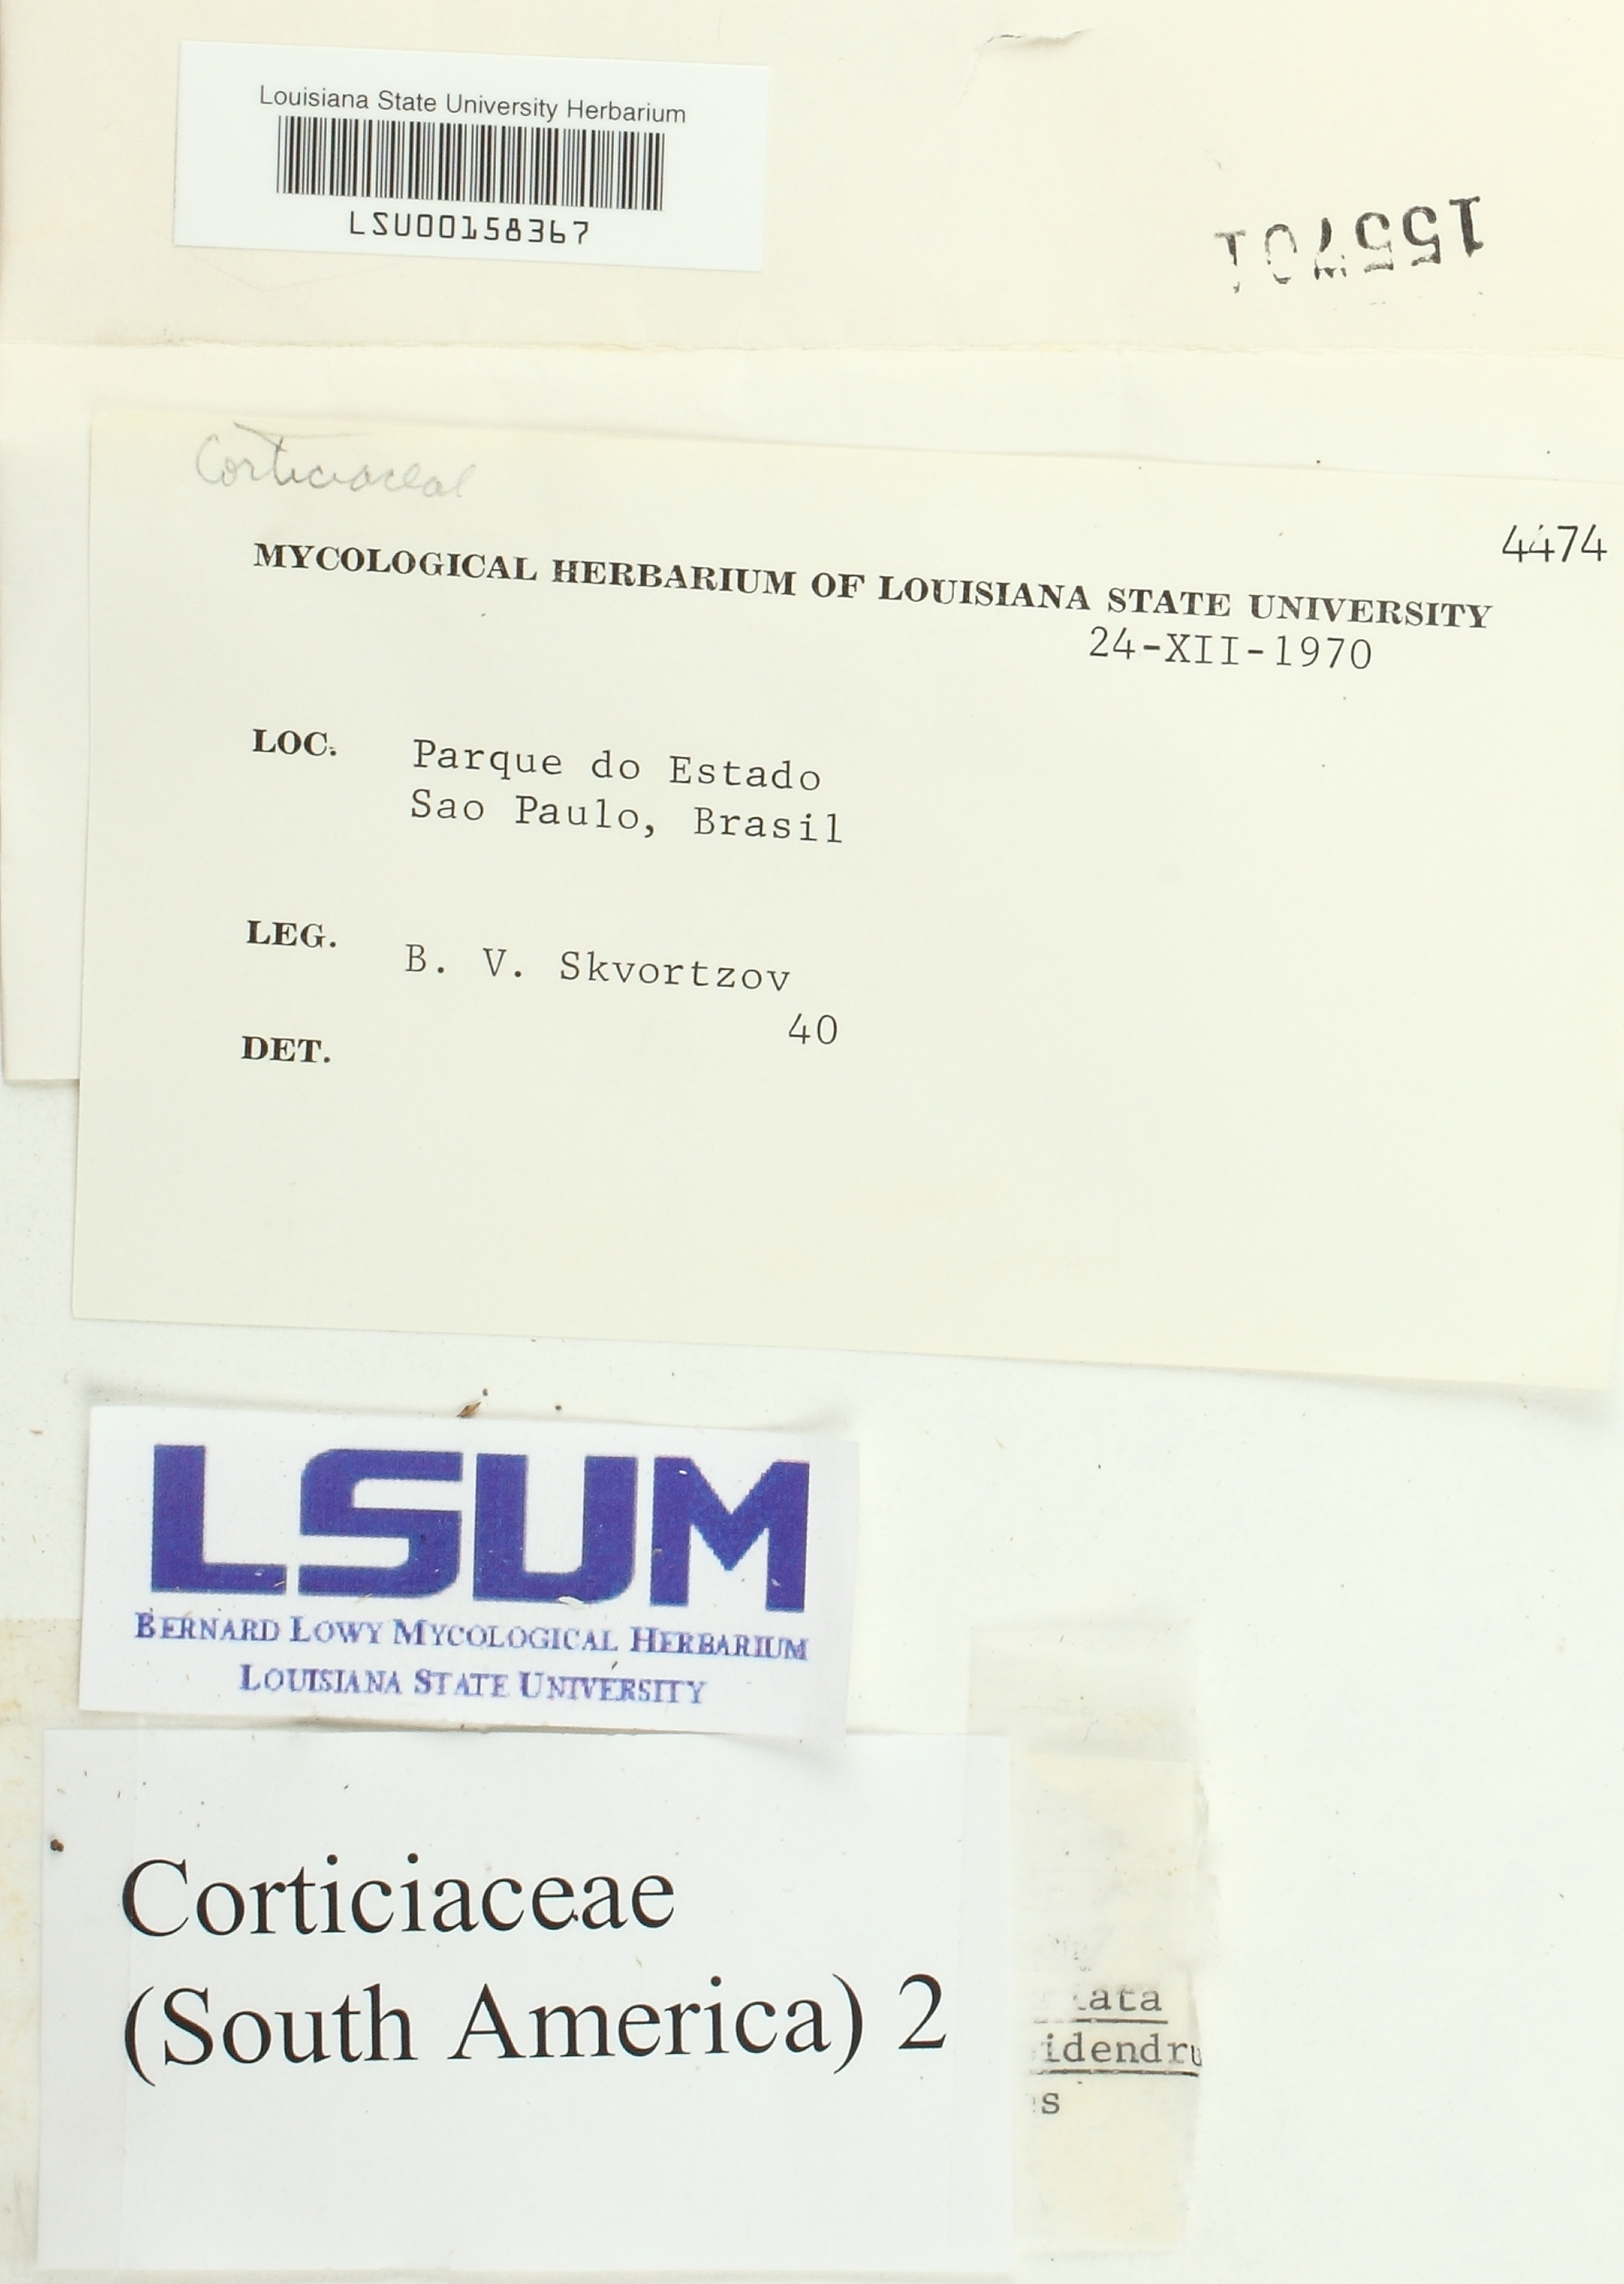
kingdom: Fungi
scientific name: Fungi
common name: Fungi
